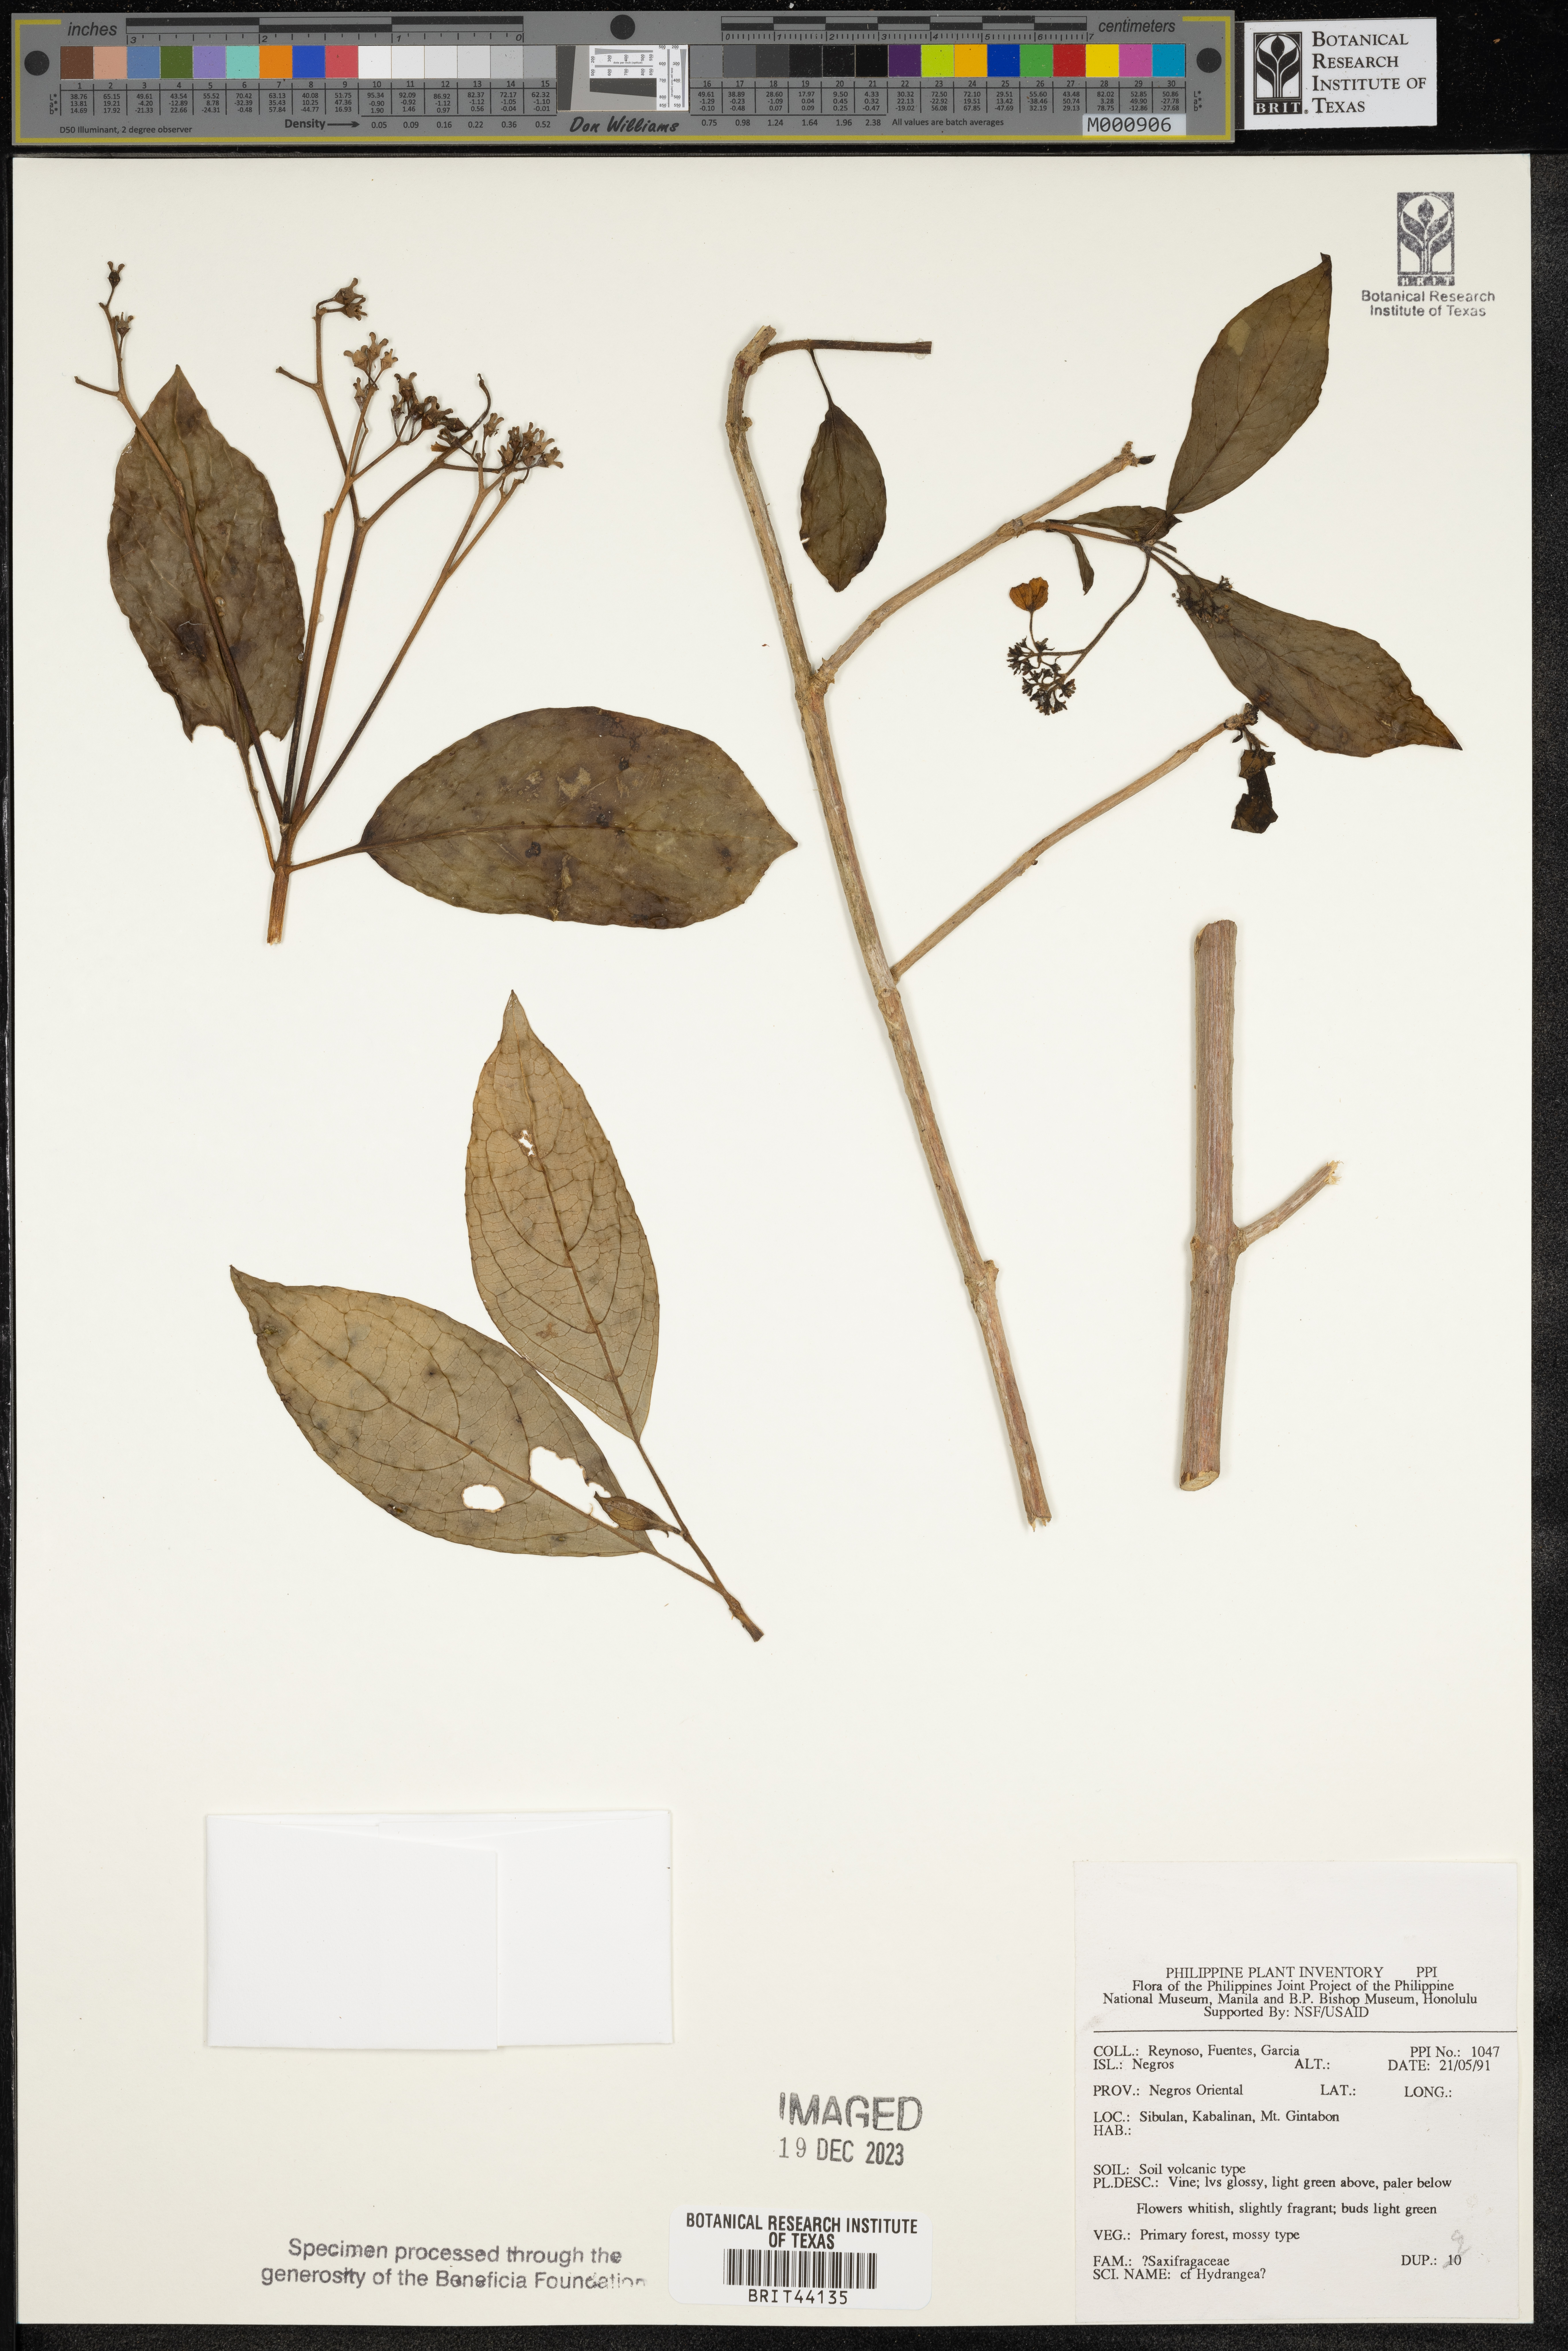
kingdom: Plantae
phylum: Tracheophyta
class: Magnoliopsida
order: Cornales
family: Hydrangeaceae
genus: Hydrangea
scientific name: Hydrangea
